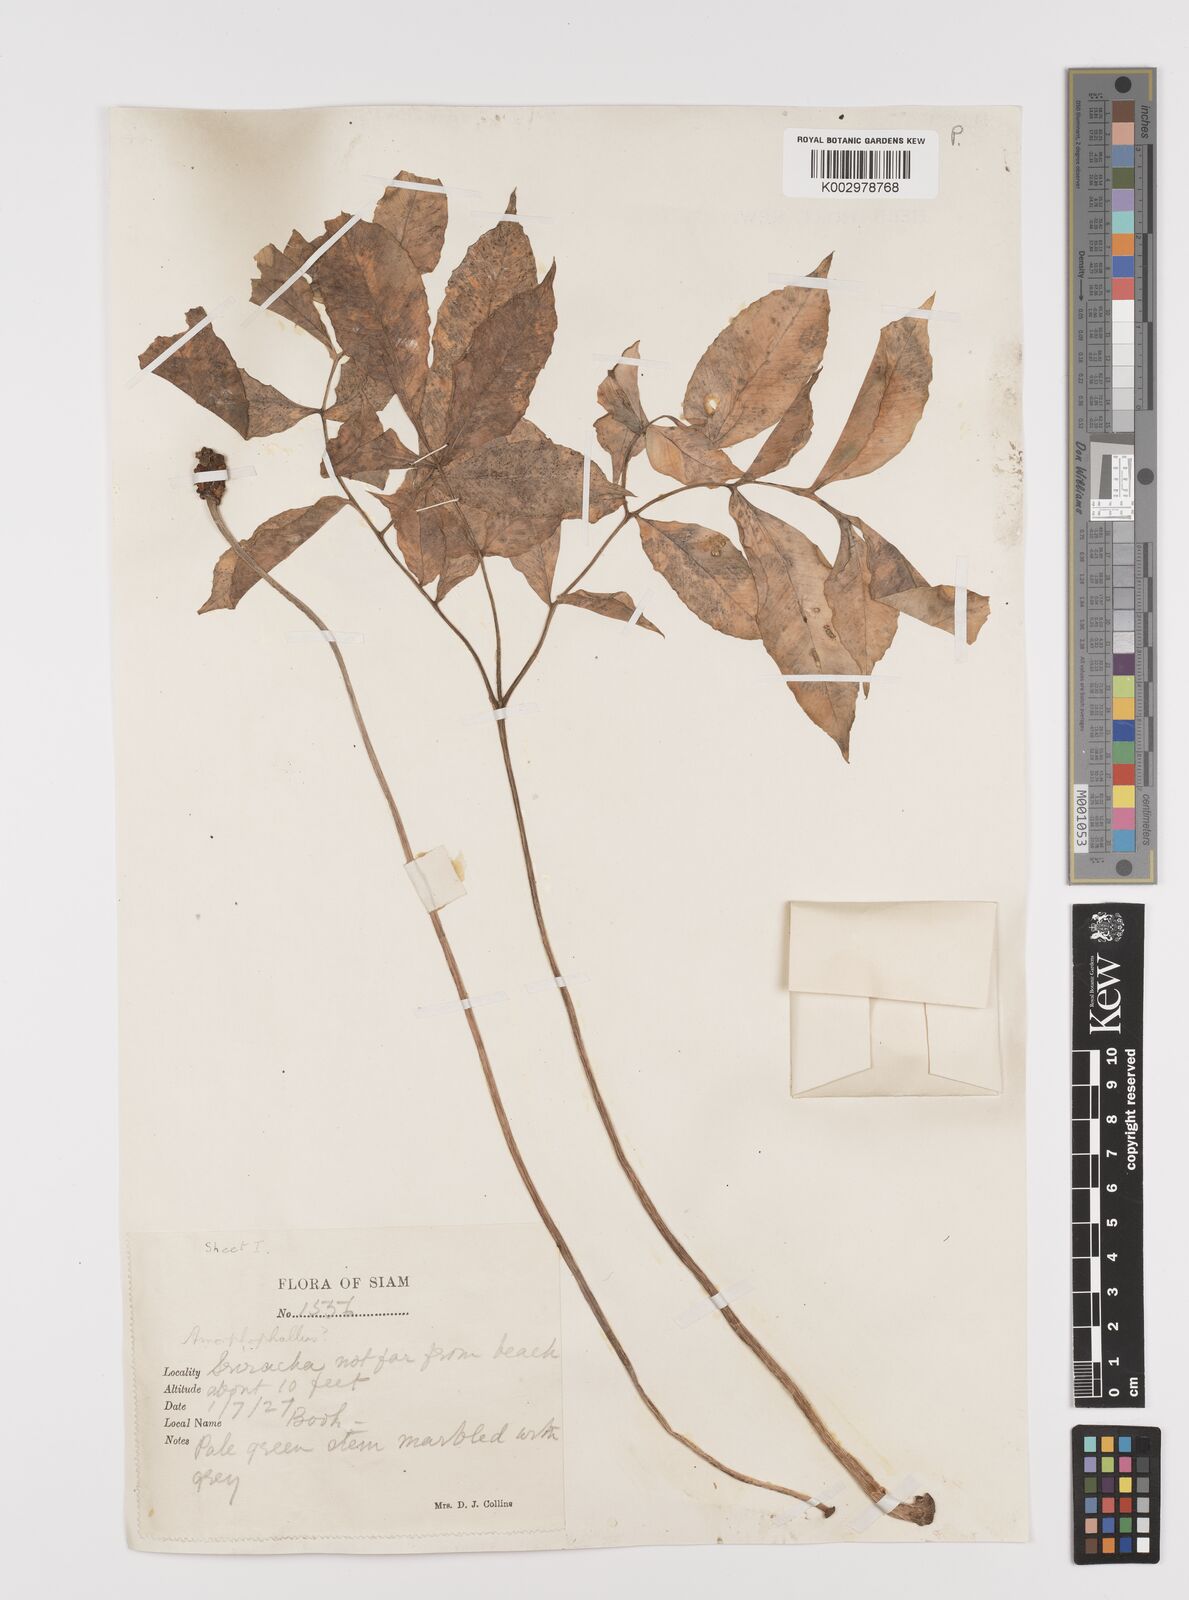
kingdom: Plantae
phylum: Tracheophyta
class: Liliopsida
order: Alismatales
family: Araceae
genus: Amorphophallus
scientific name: Amorphophallus
